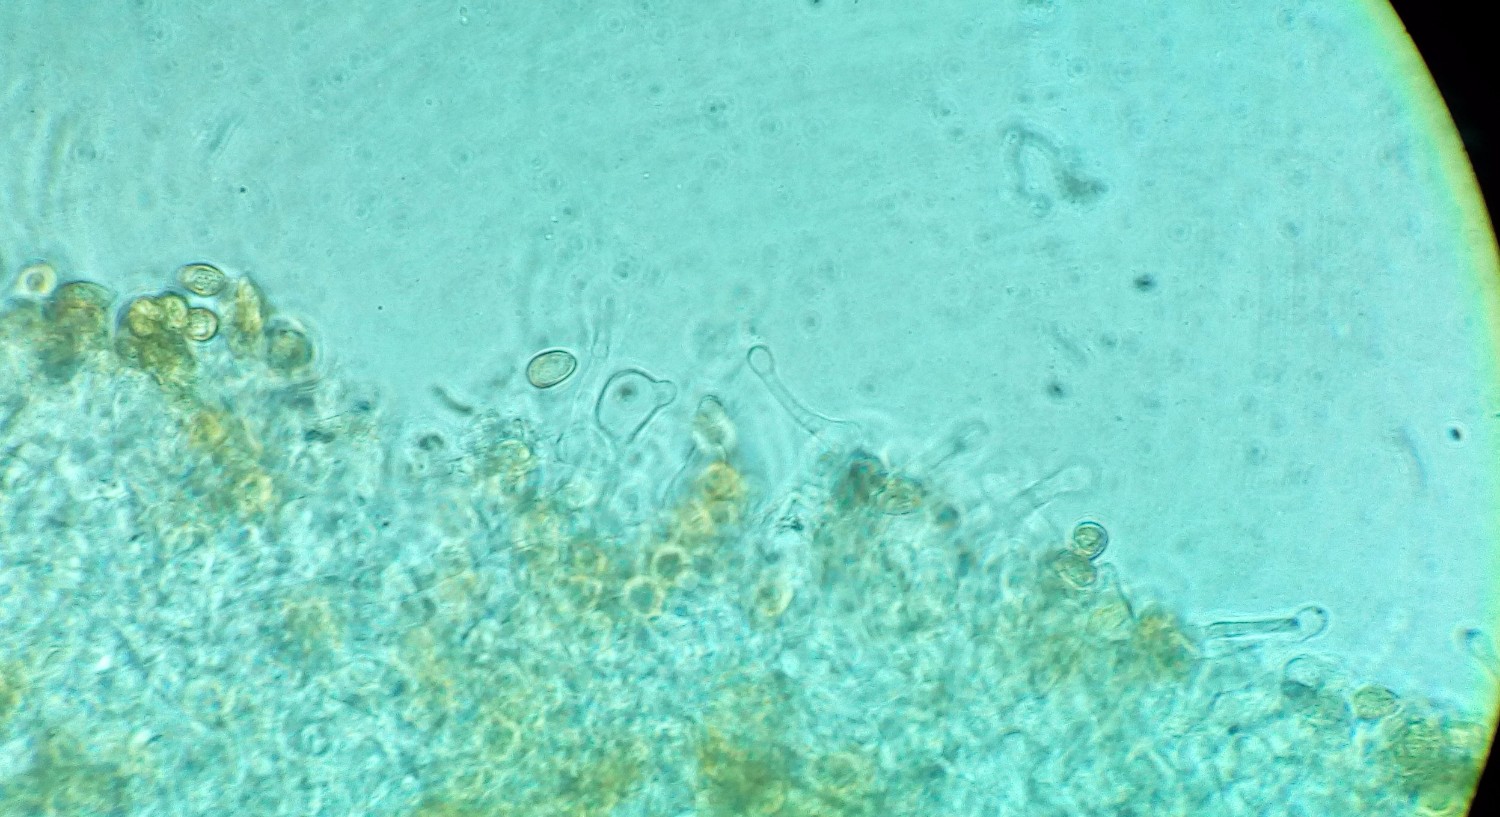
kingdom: Fungi
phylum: Basidiomycota
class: Agaricomycetes
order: Agaricales
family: Hymenogastraceae
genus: Galerina
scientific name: Galerina graminea
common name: plæne-hjelmhat
